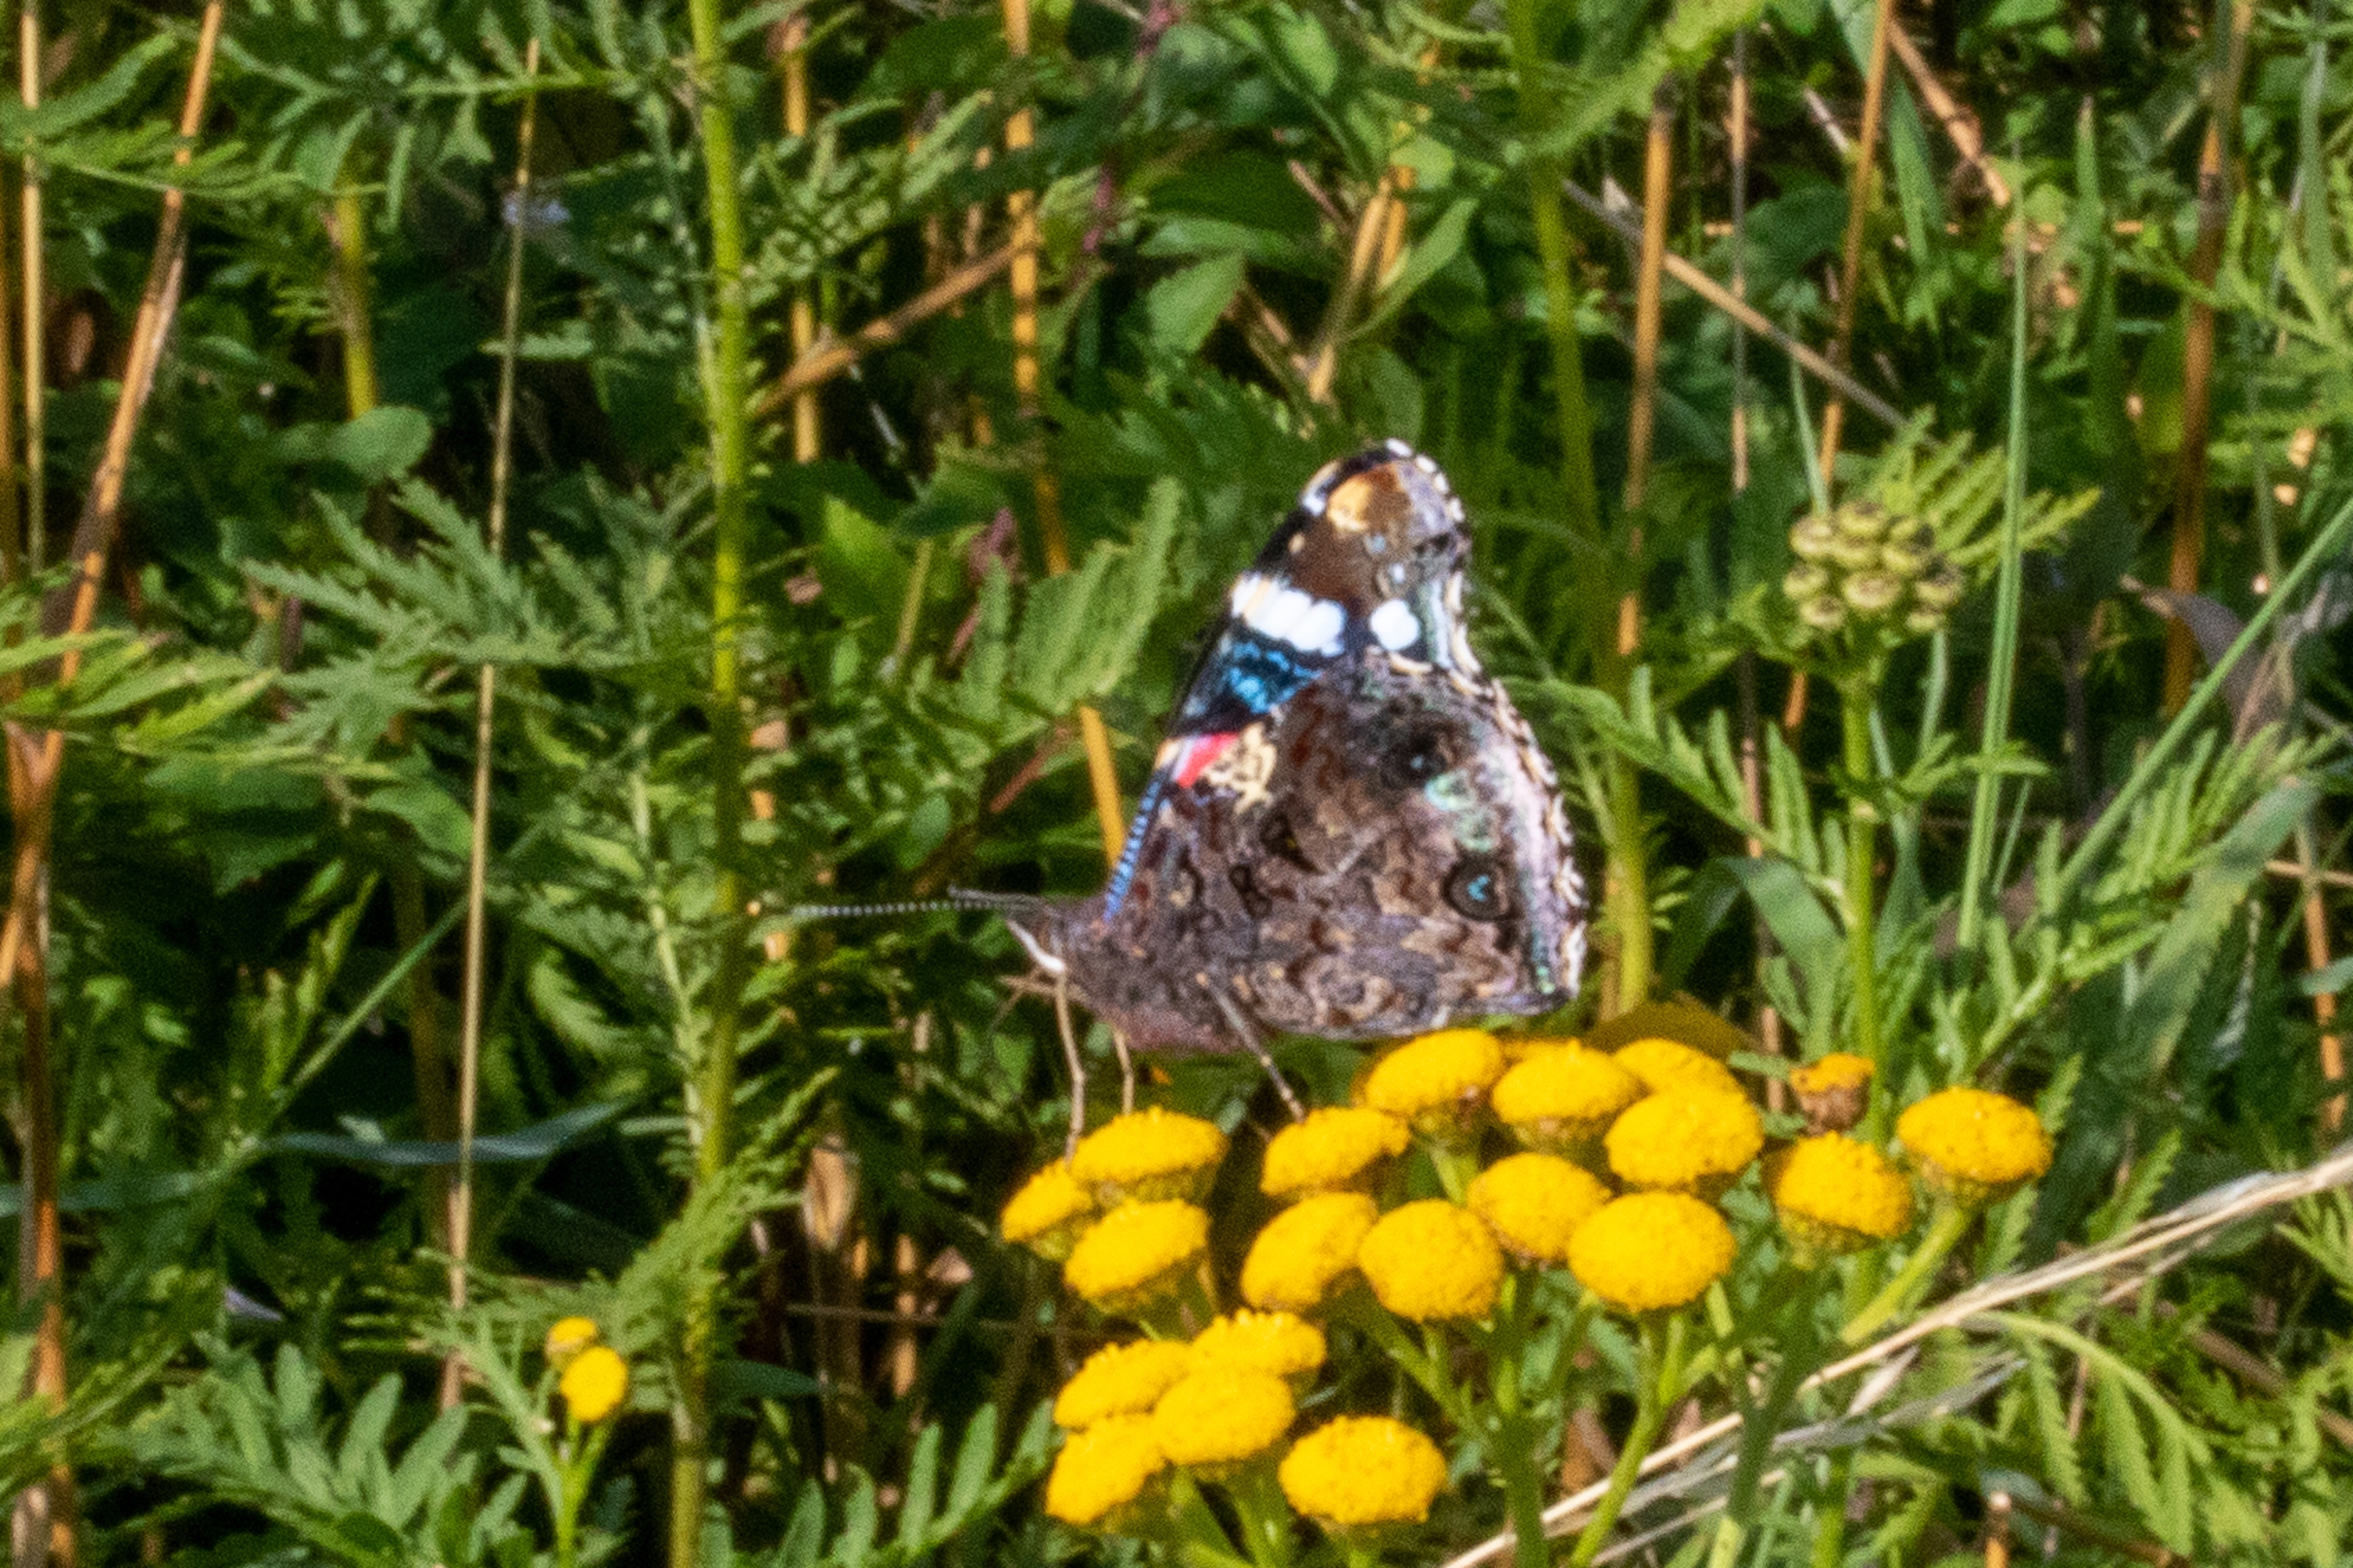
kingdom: Animalia
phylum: Arthropoda
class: Insecta
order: Lepidoptera
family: Nymphalidae
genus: Vanessa
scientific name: Vanessa atalanta
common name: Admiral
